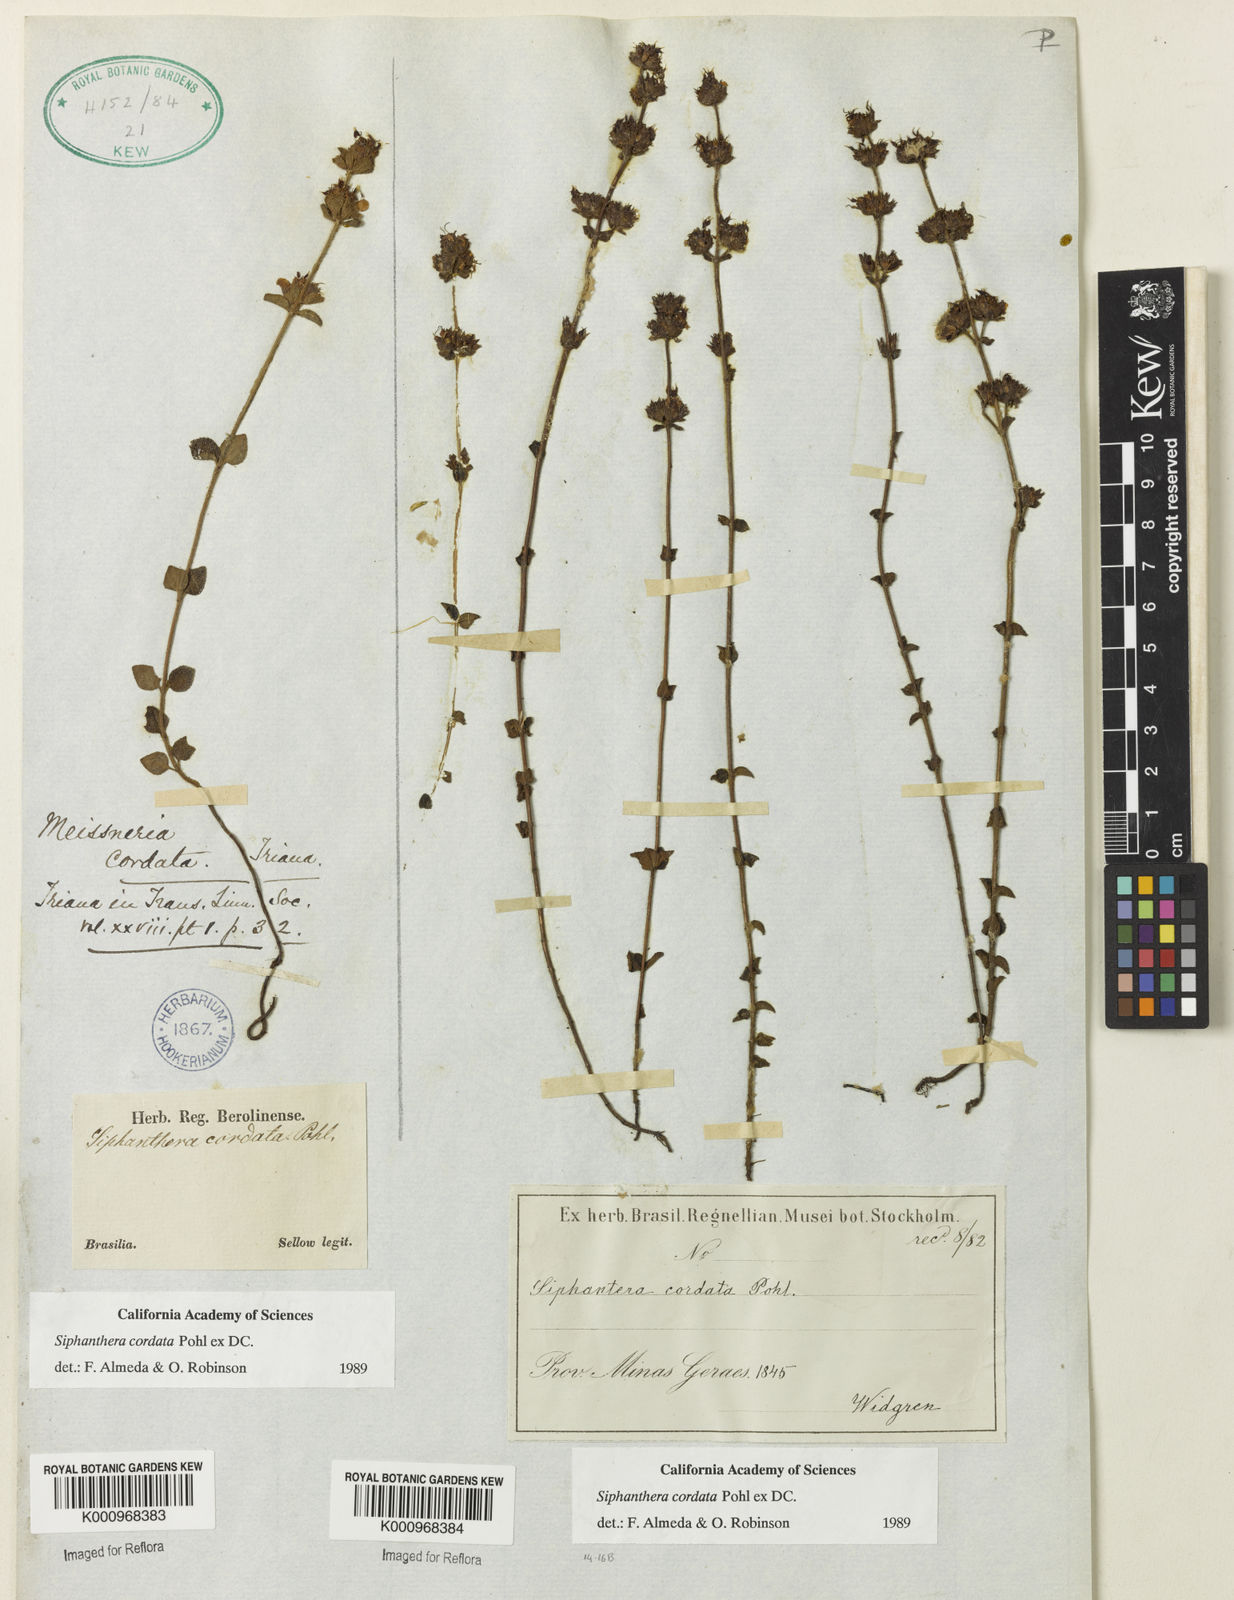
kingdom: Plantae
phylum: Tracheophyta
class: Magnoliopsida
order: Myrtales
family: Melastomataceae
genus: Siphanthera
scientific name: Siphanthera
